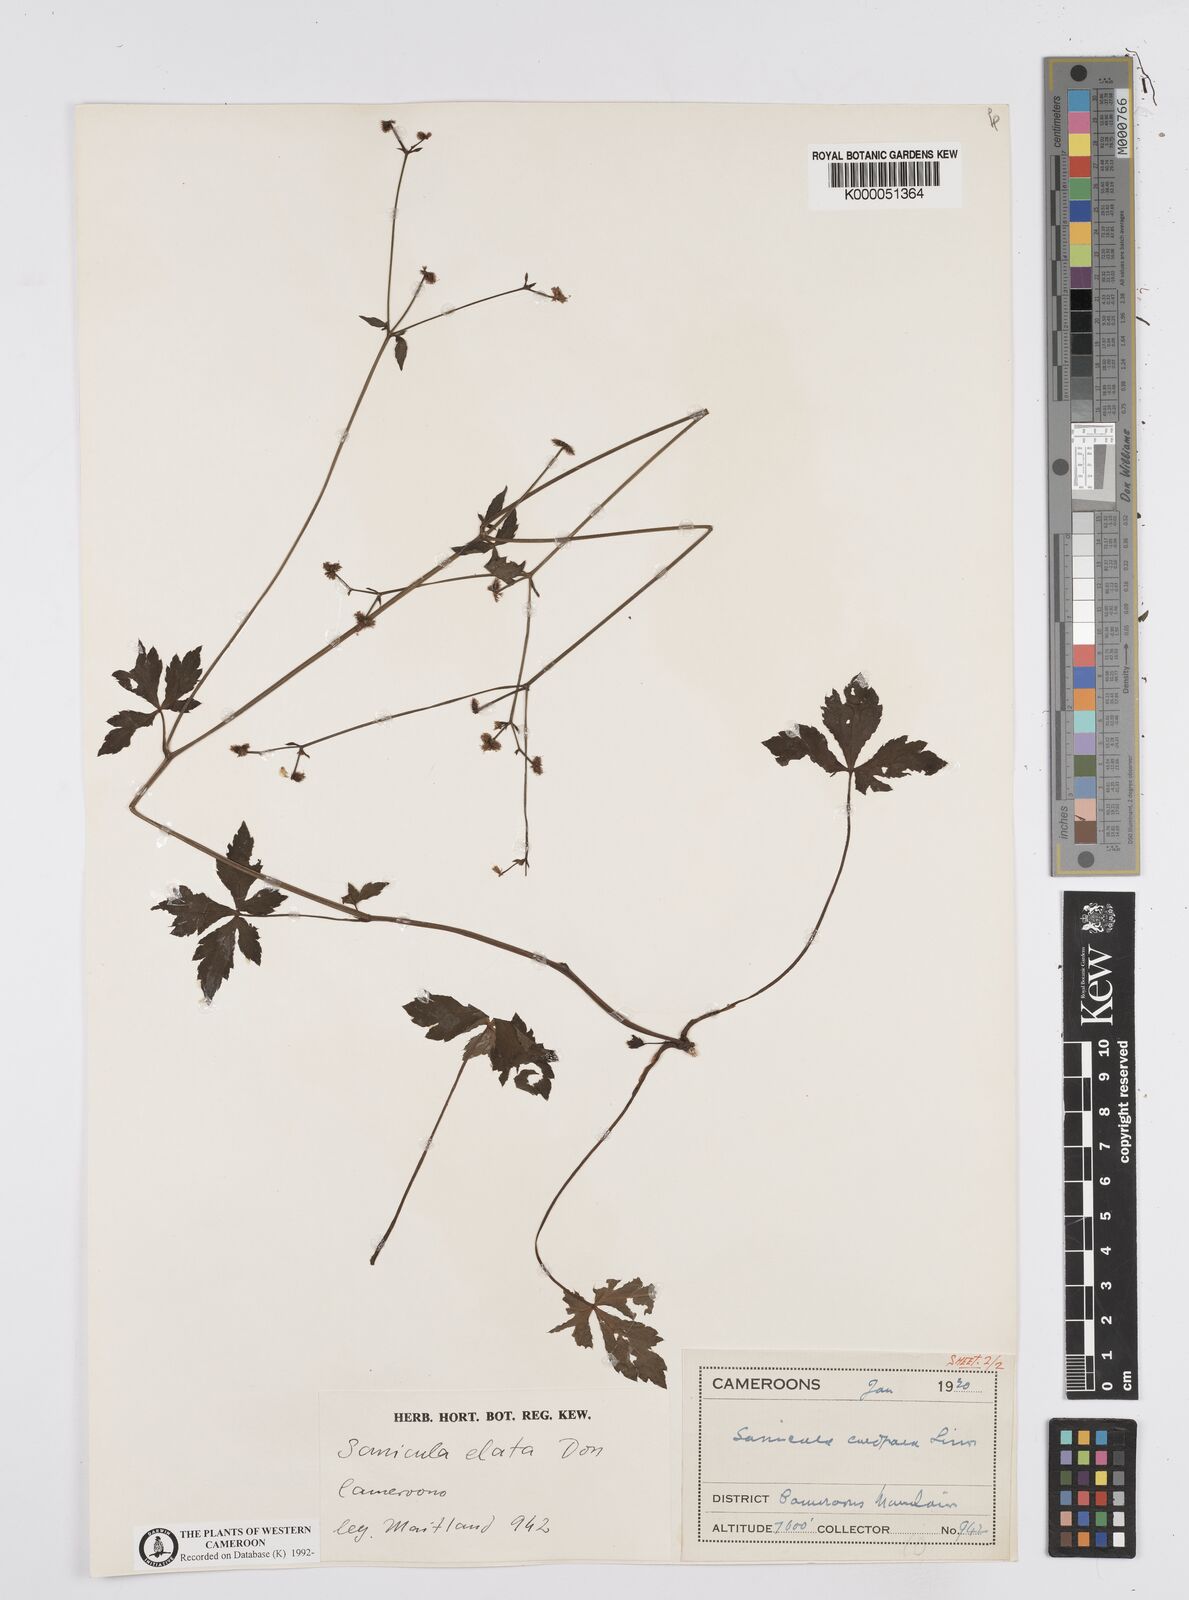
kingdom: Plantae
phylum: Tracheophyta
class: Magnoliopsida
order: Apiales
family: Apiaceae
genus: Sanicula
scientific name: Sanicula
